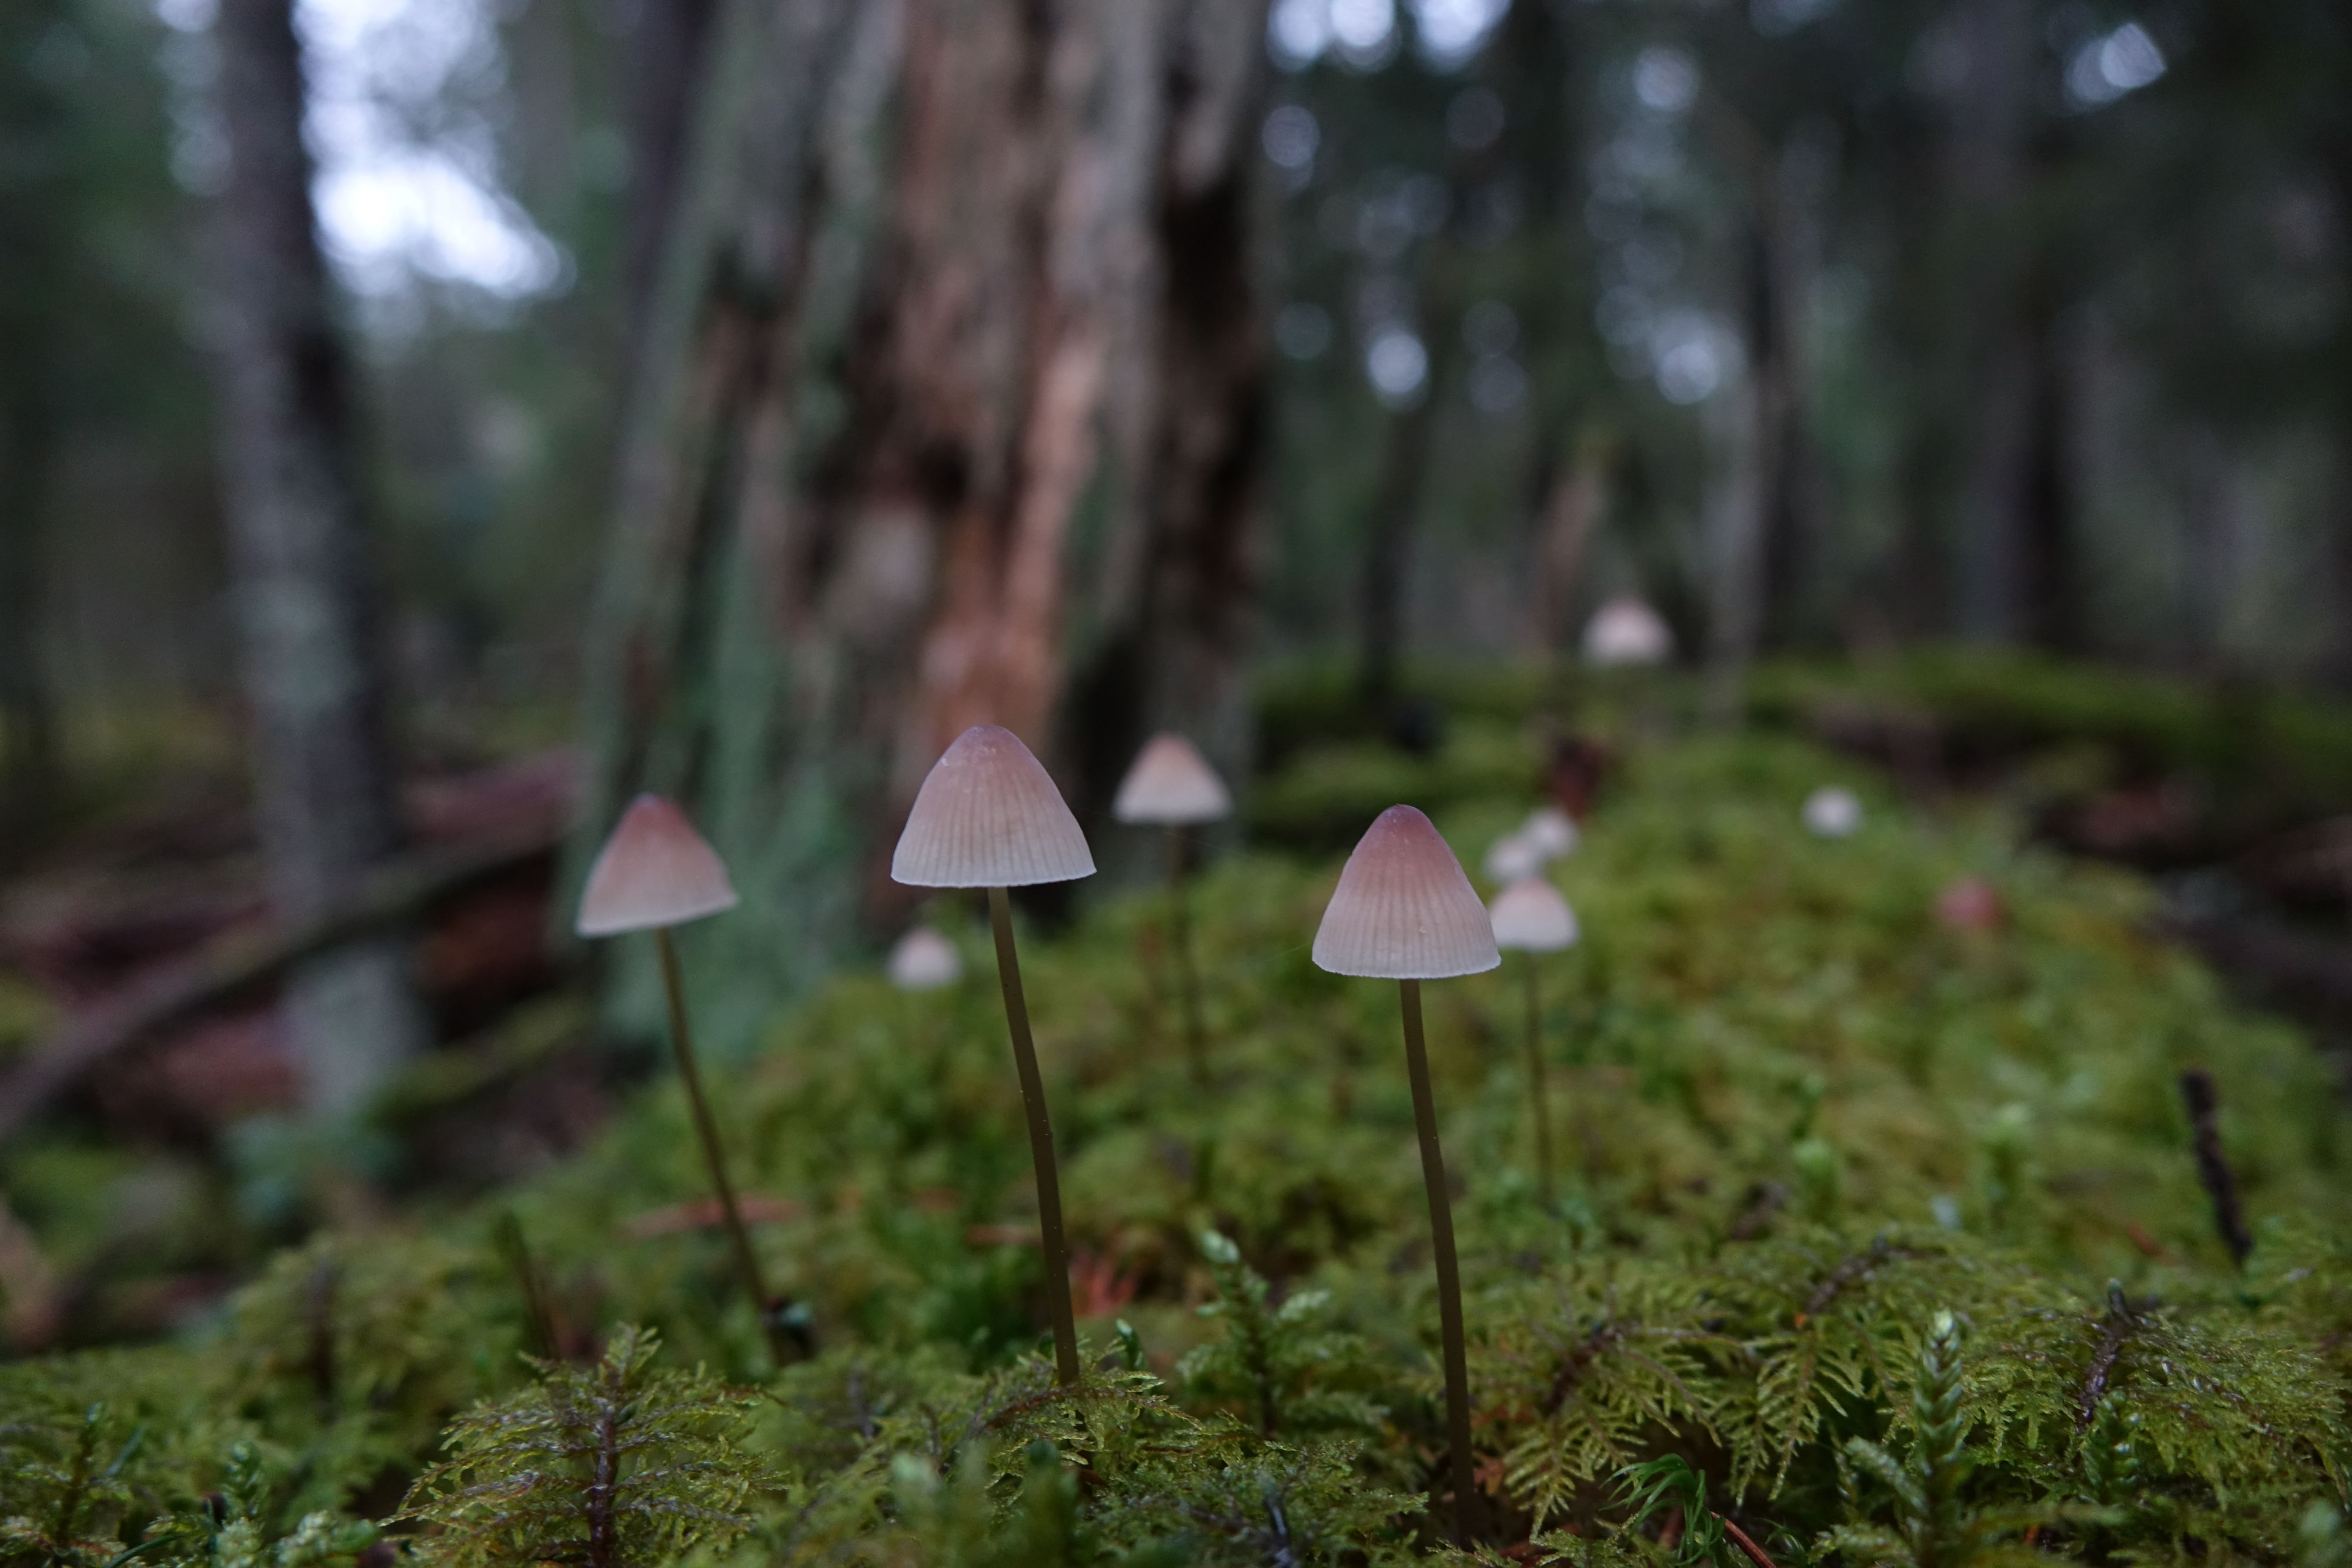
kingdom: Fungi
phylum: Basidiomycota
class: Agaricomycetes
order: Agaricales
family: Mycenaceae
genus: Mycena
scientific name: Mycena metata
